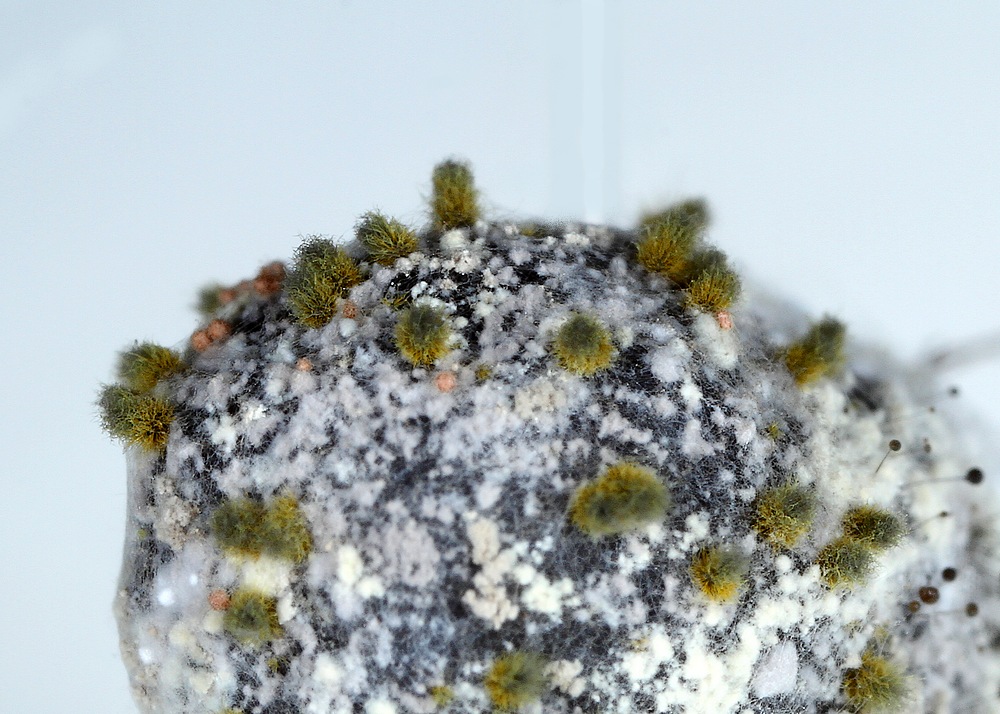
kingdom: Fungi
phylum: Ascomycota
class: Sordariomycetes
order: Sordariales
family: Chaetomiaceae
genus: Chaetomium
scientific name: Chaetomium globosum
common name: gulgrøn søjlekerne
